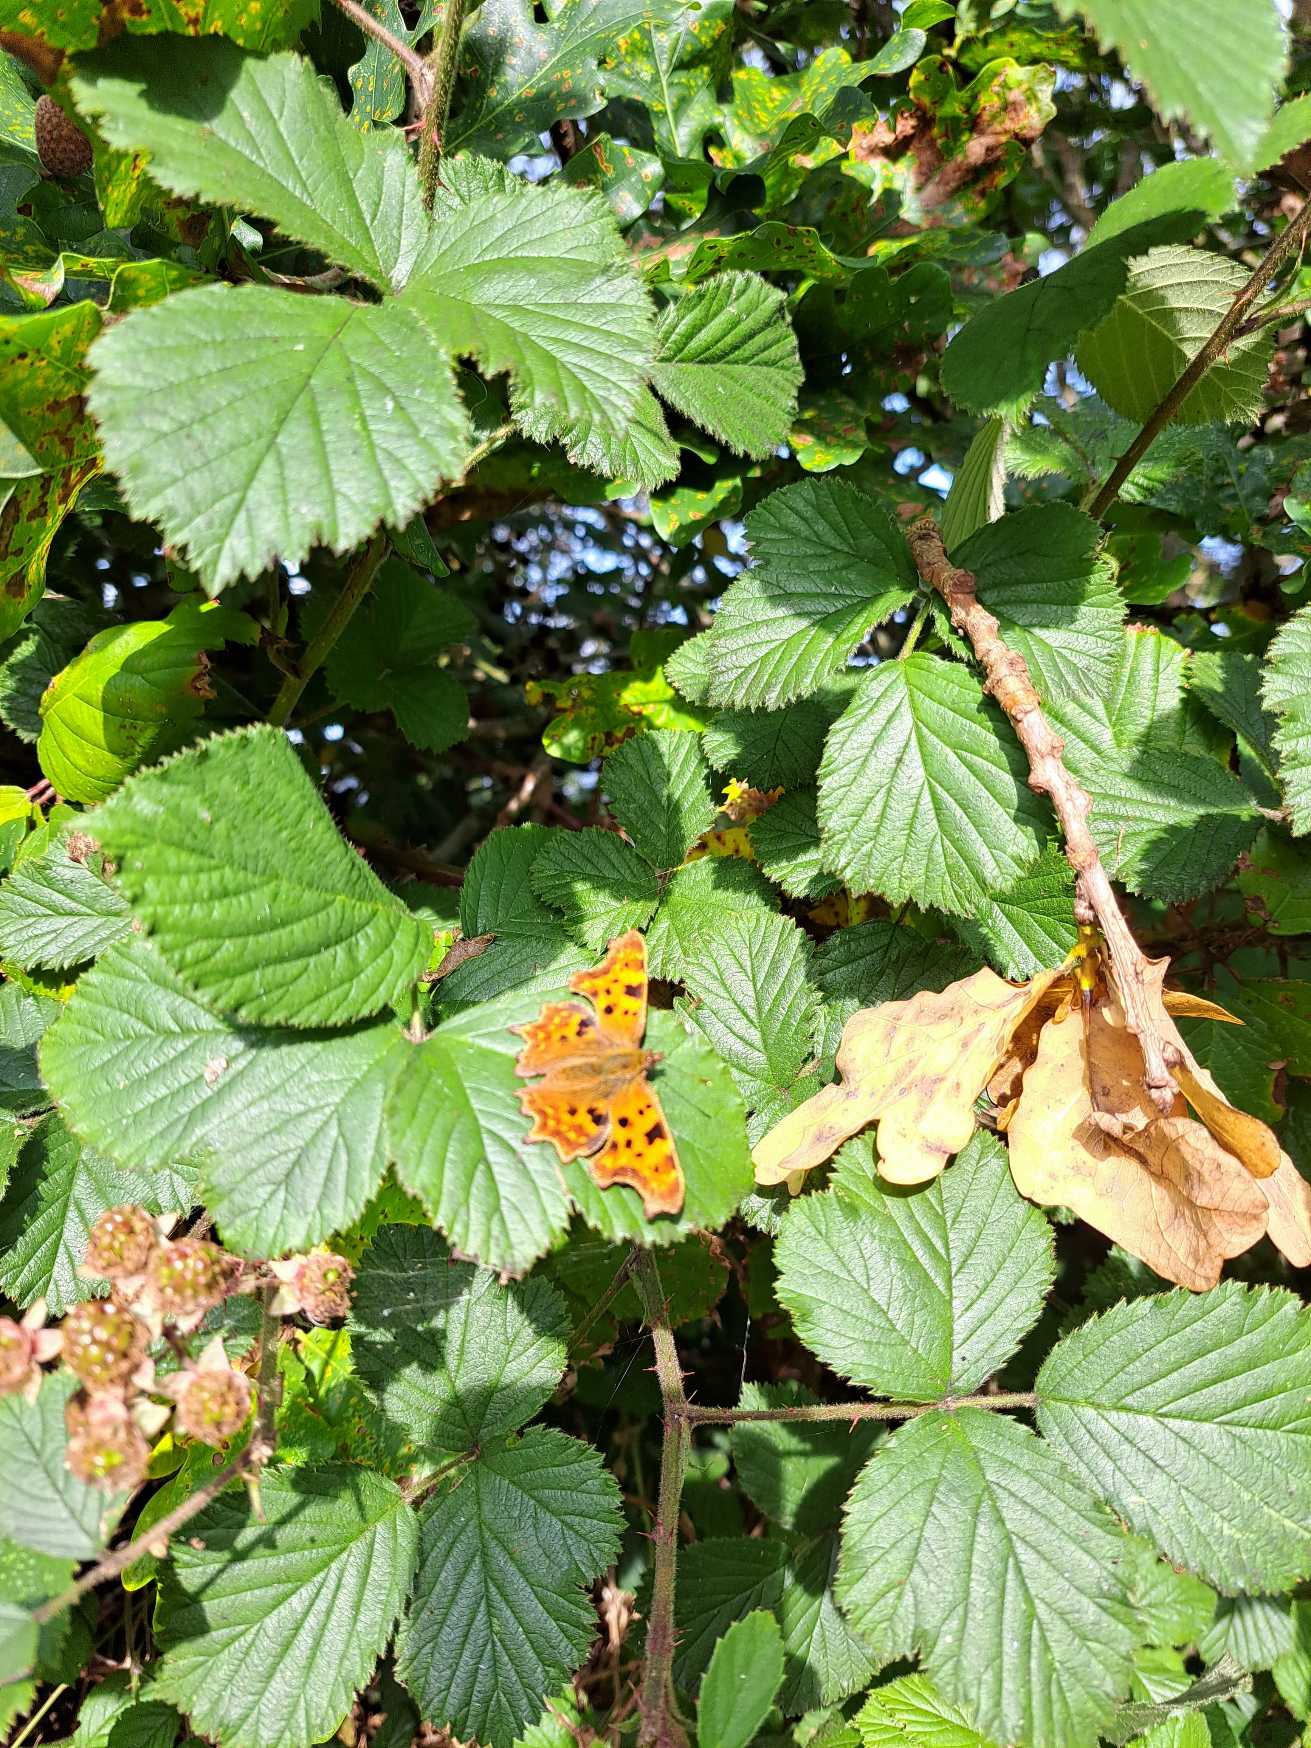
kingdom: Animalia
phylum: Arthropoda
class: Insecta
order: Lepidoptera
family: Nymphalidae
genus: Polygonia
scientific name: Polygonia c-album
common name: Det hvide C
